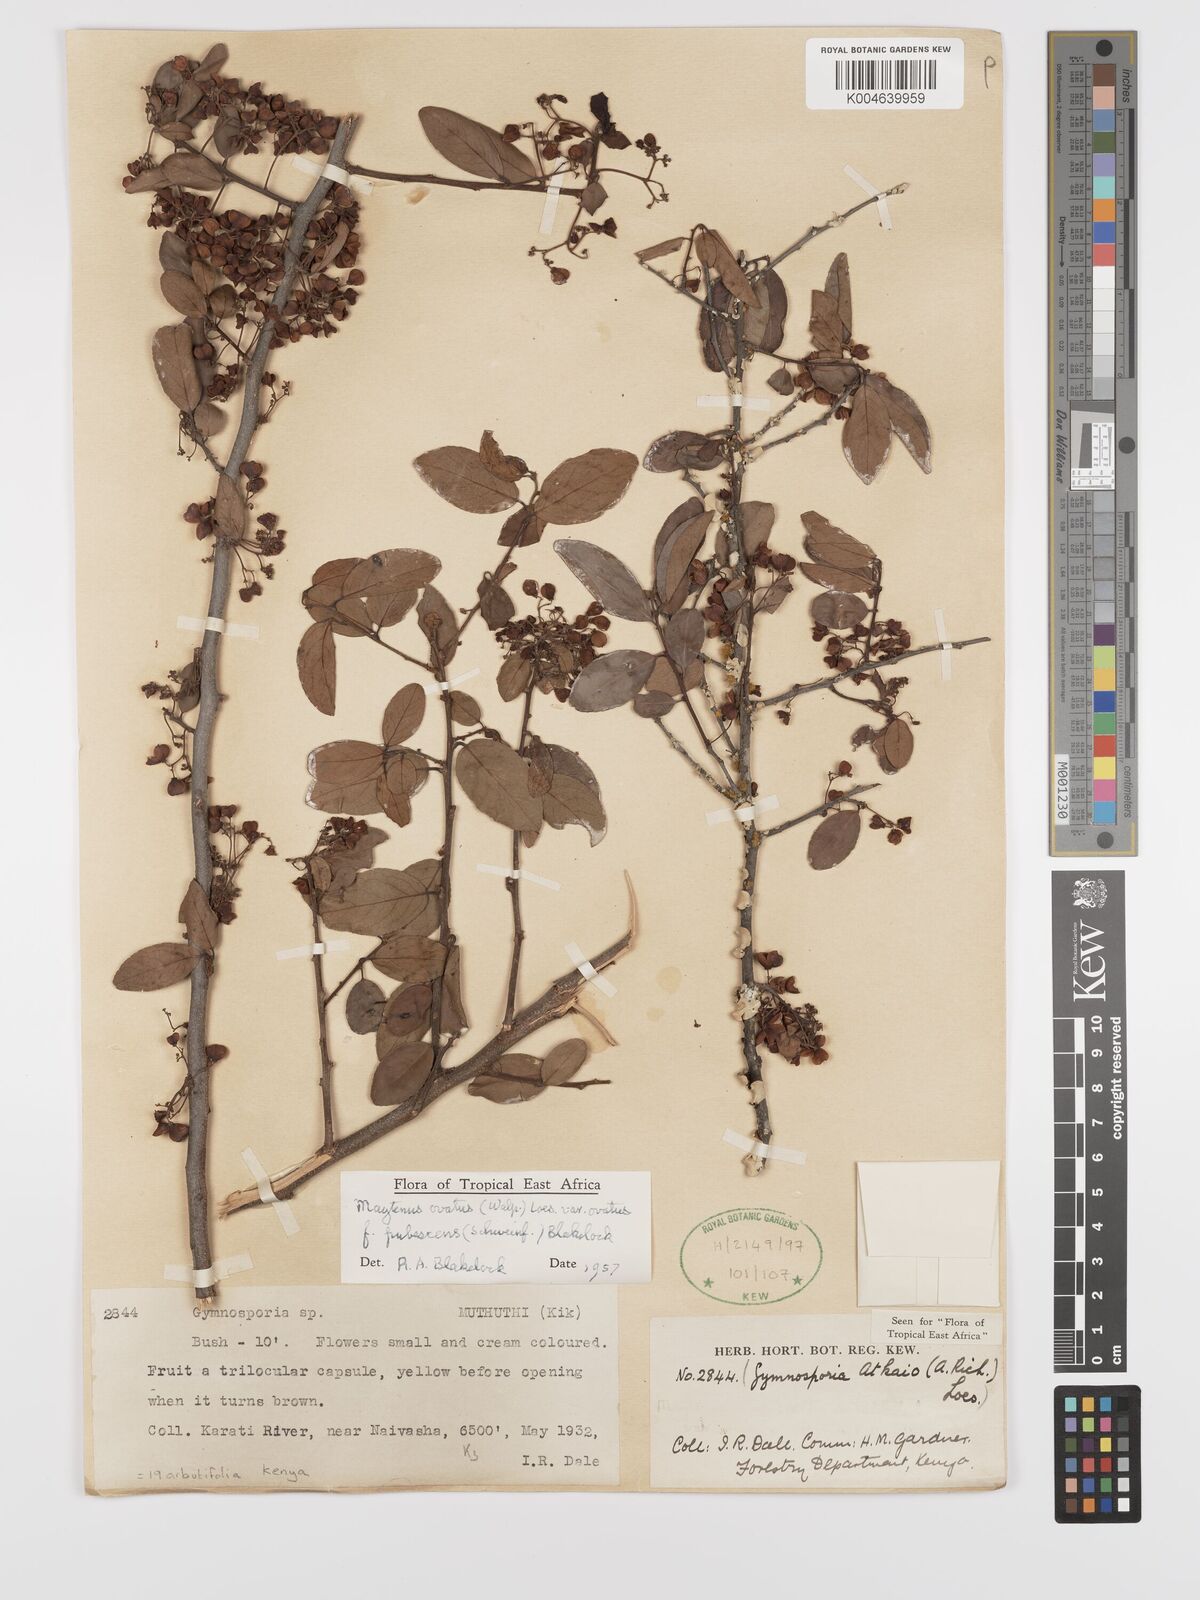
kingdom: Plantae
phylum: Tracheophyta
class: Magnoliopsida
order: Celastrales
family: Celastraceae
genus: Gymnosporia
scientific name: Gymnosporia arbutifolia
